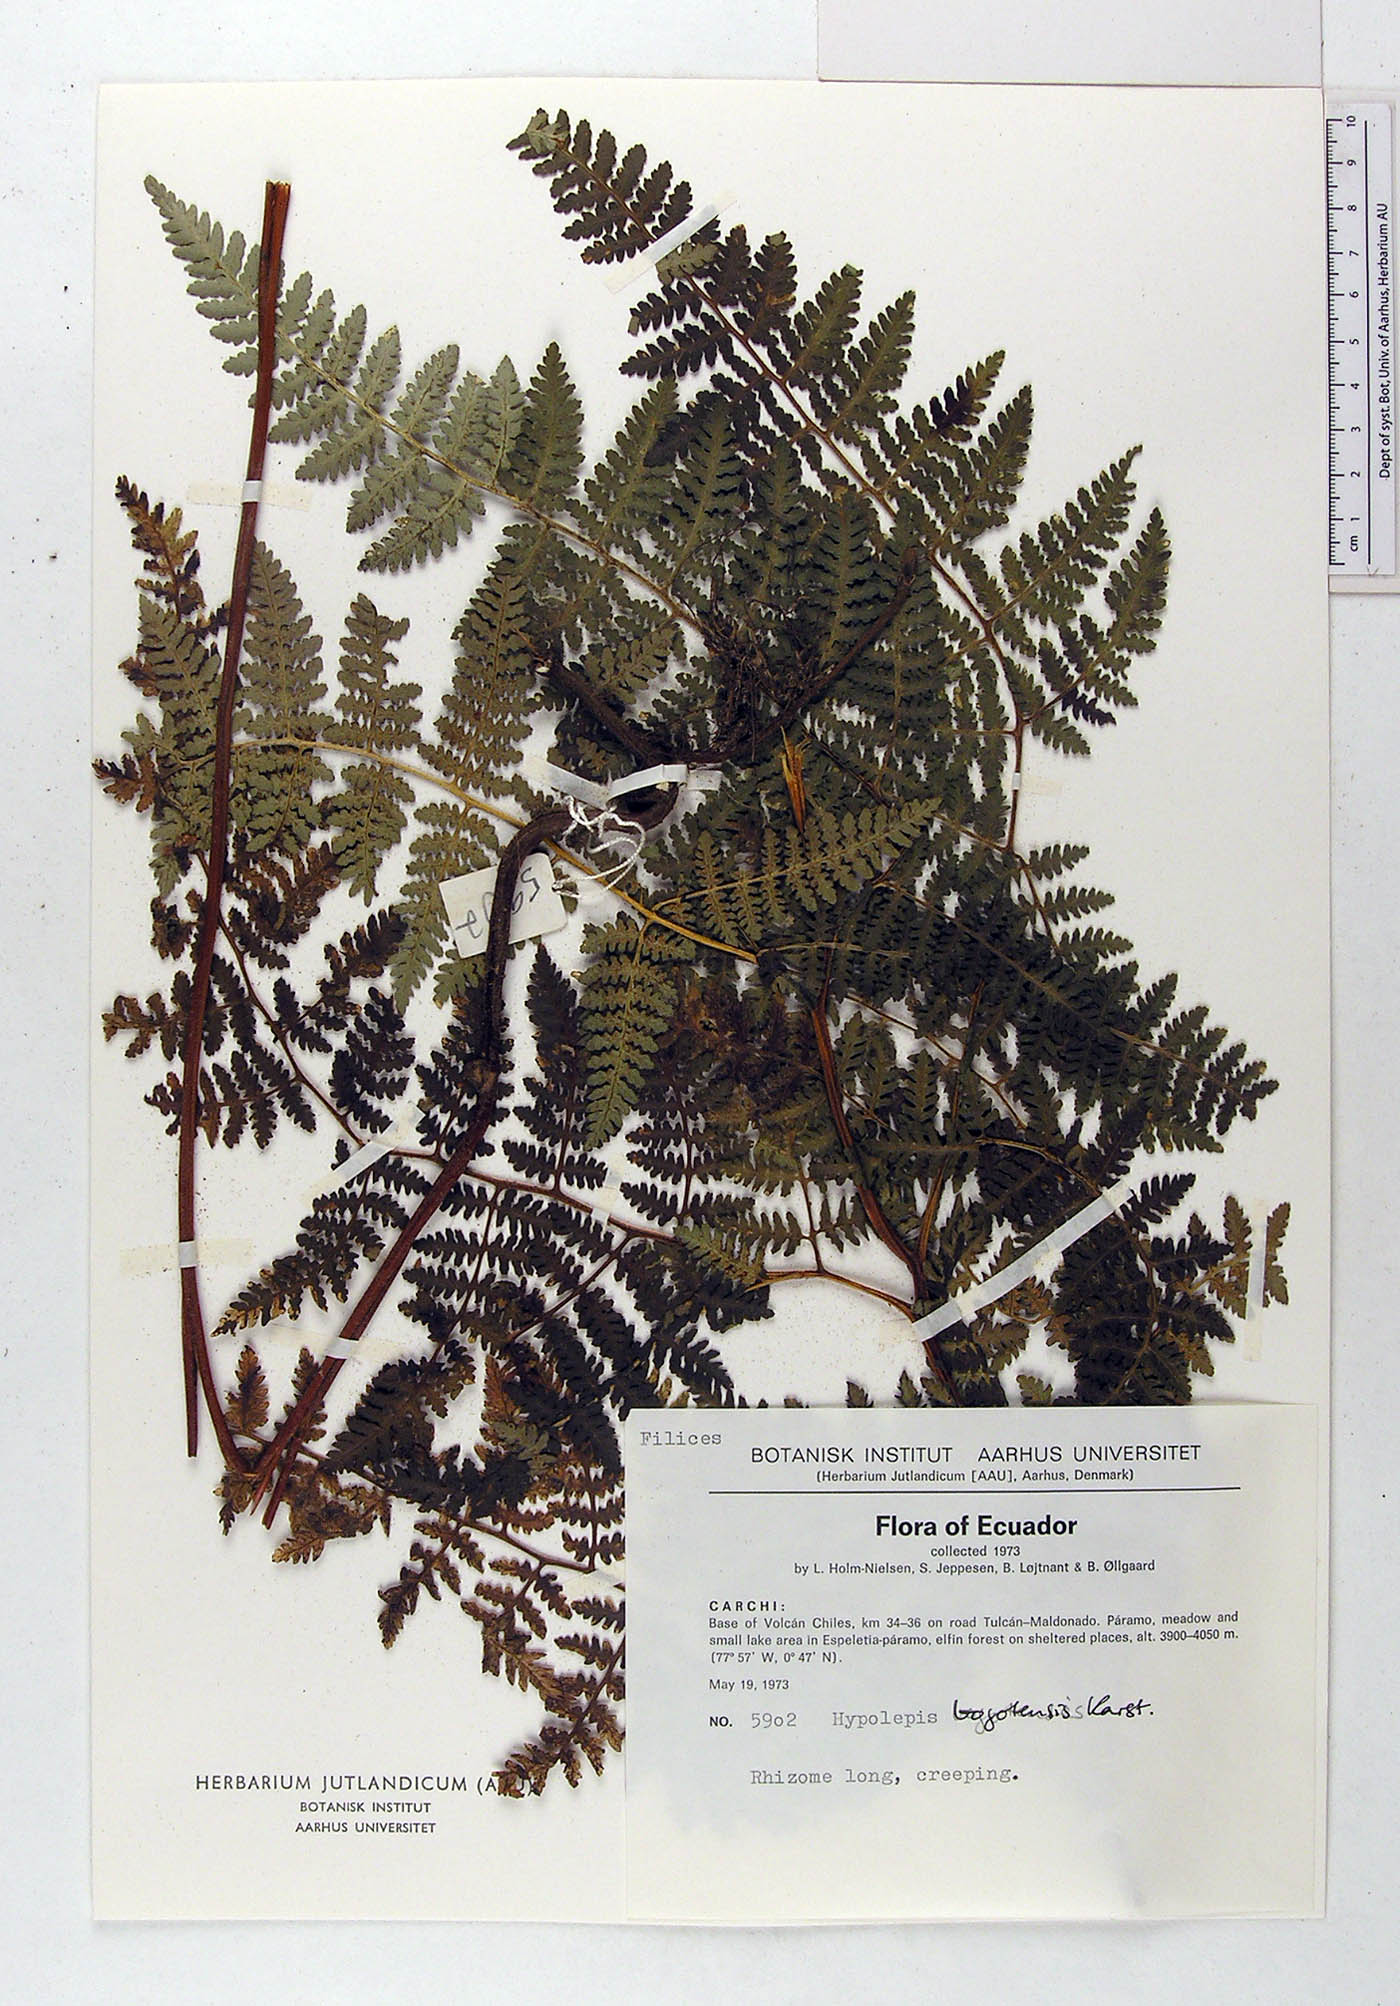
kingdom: Plantae
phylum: Tracheophyta
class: Polypodiopsida
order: Polypodiales
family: Dennstaedtiaceae
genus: Hypolepis
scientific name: Hypolepis bogotensis
